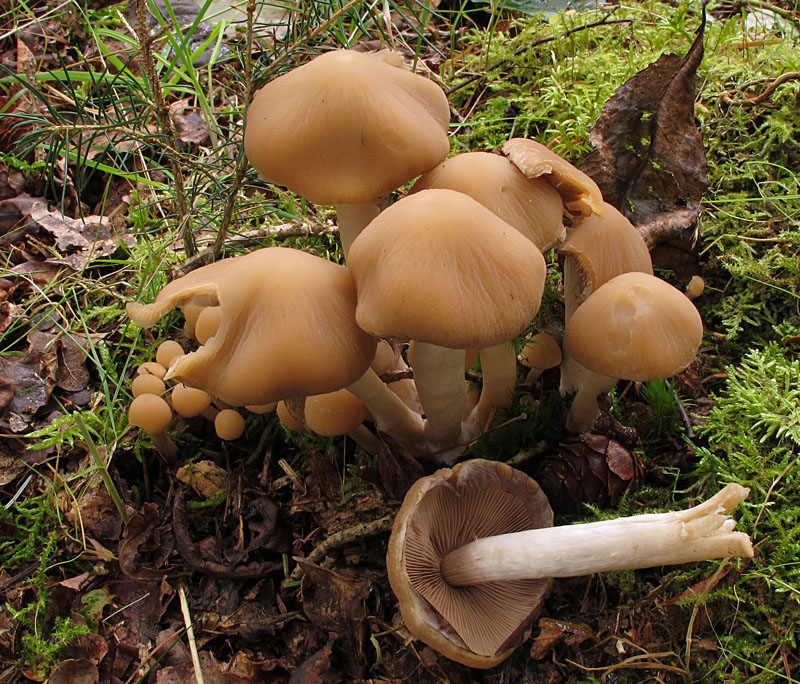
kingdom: Fungi
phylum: Basidiomycota
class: Agaricomycetes
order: Agaricales
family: Psathyrellaceae
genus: Psathyrella
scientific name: Psathyrella piluliformis
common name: lysstokket mørkhat
